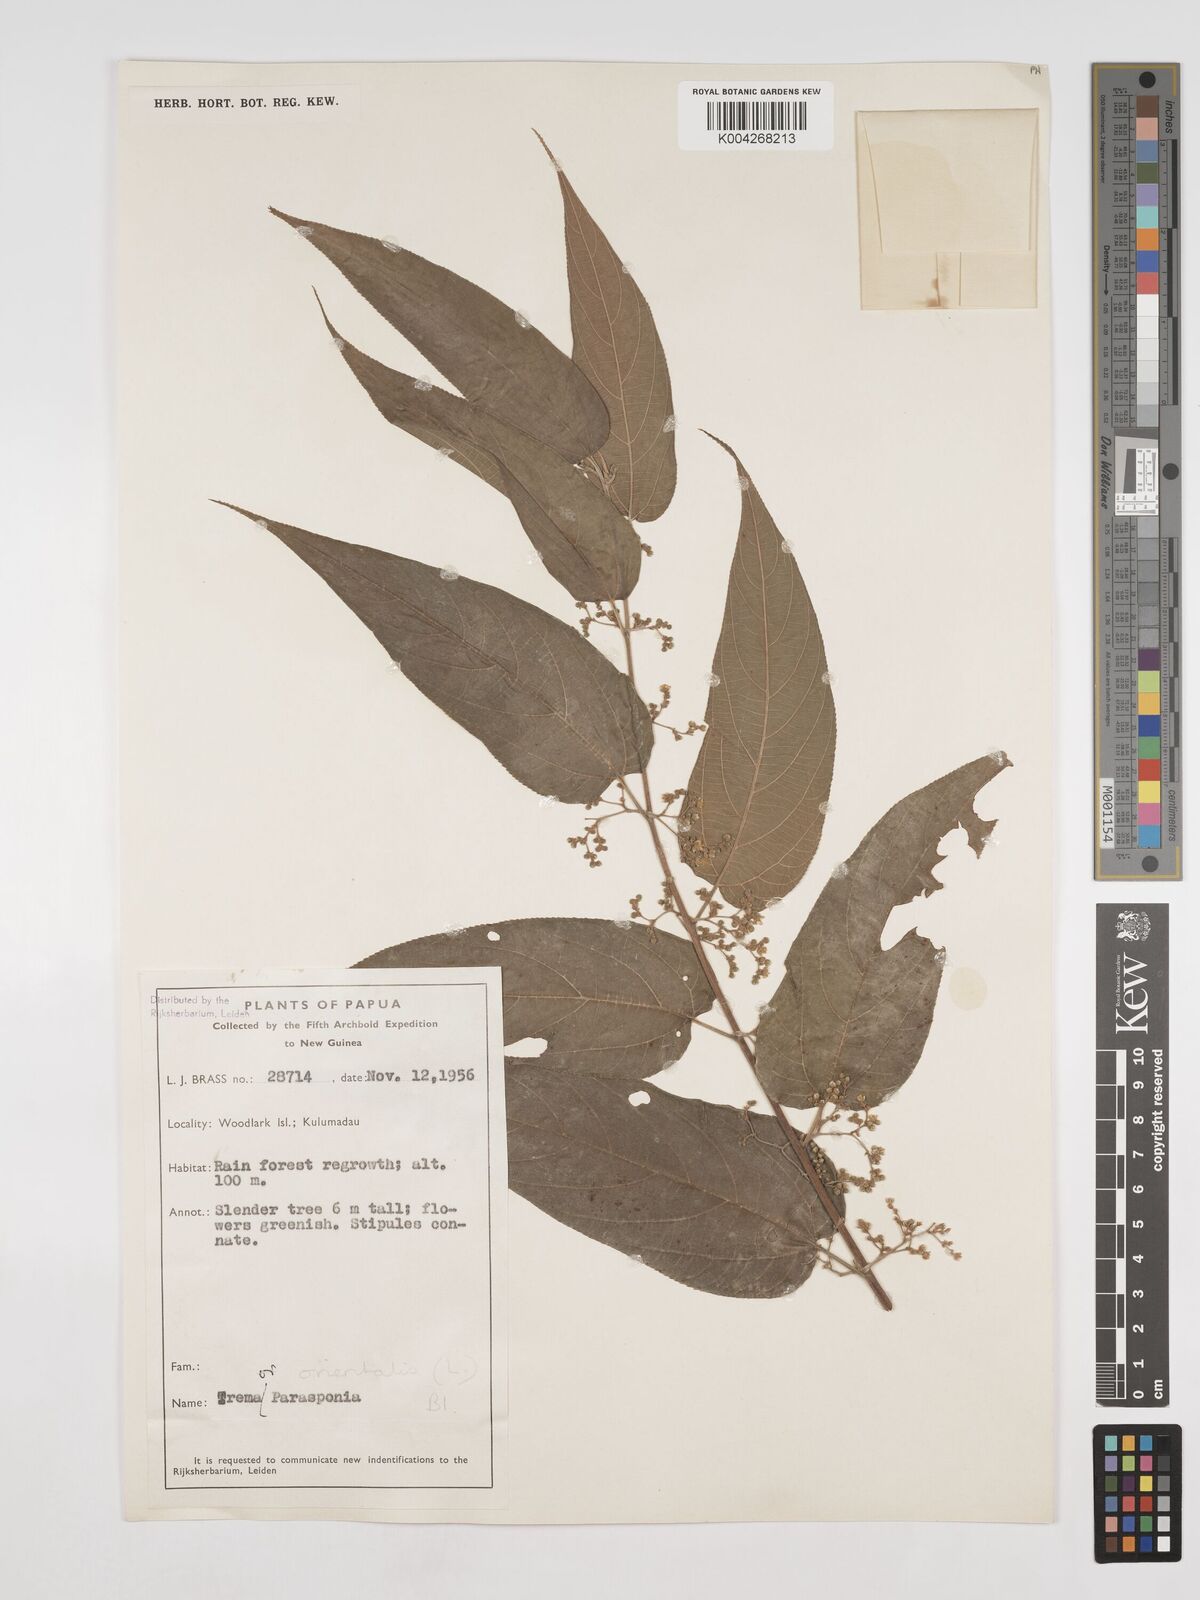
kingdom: Plantae
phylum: Tracheophyta
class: Magnoliopsida
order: Rosales
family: Cannabaceae
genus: Trema
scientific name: Trema orientale
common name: Indian charcoal tree
